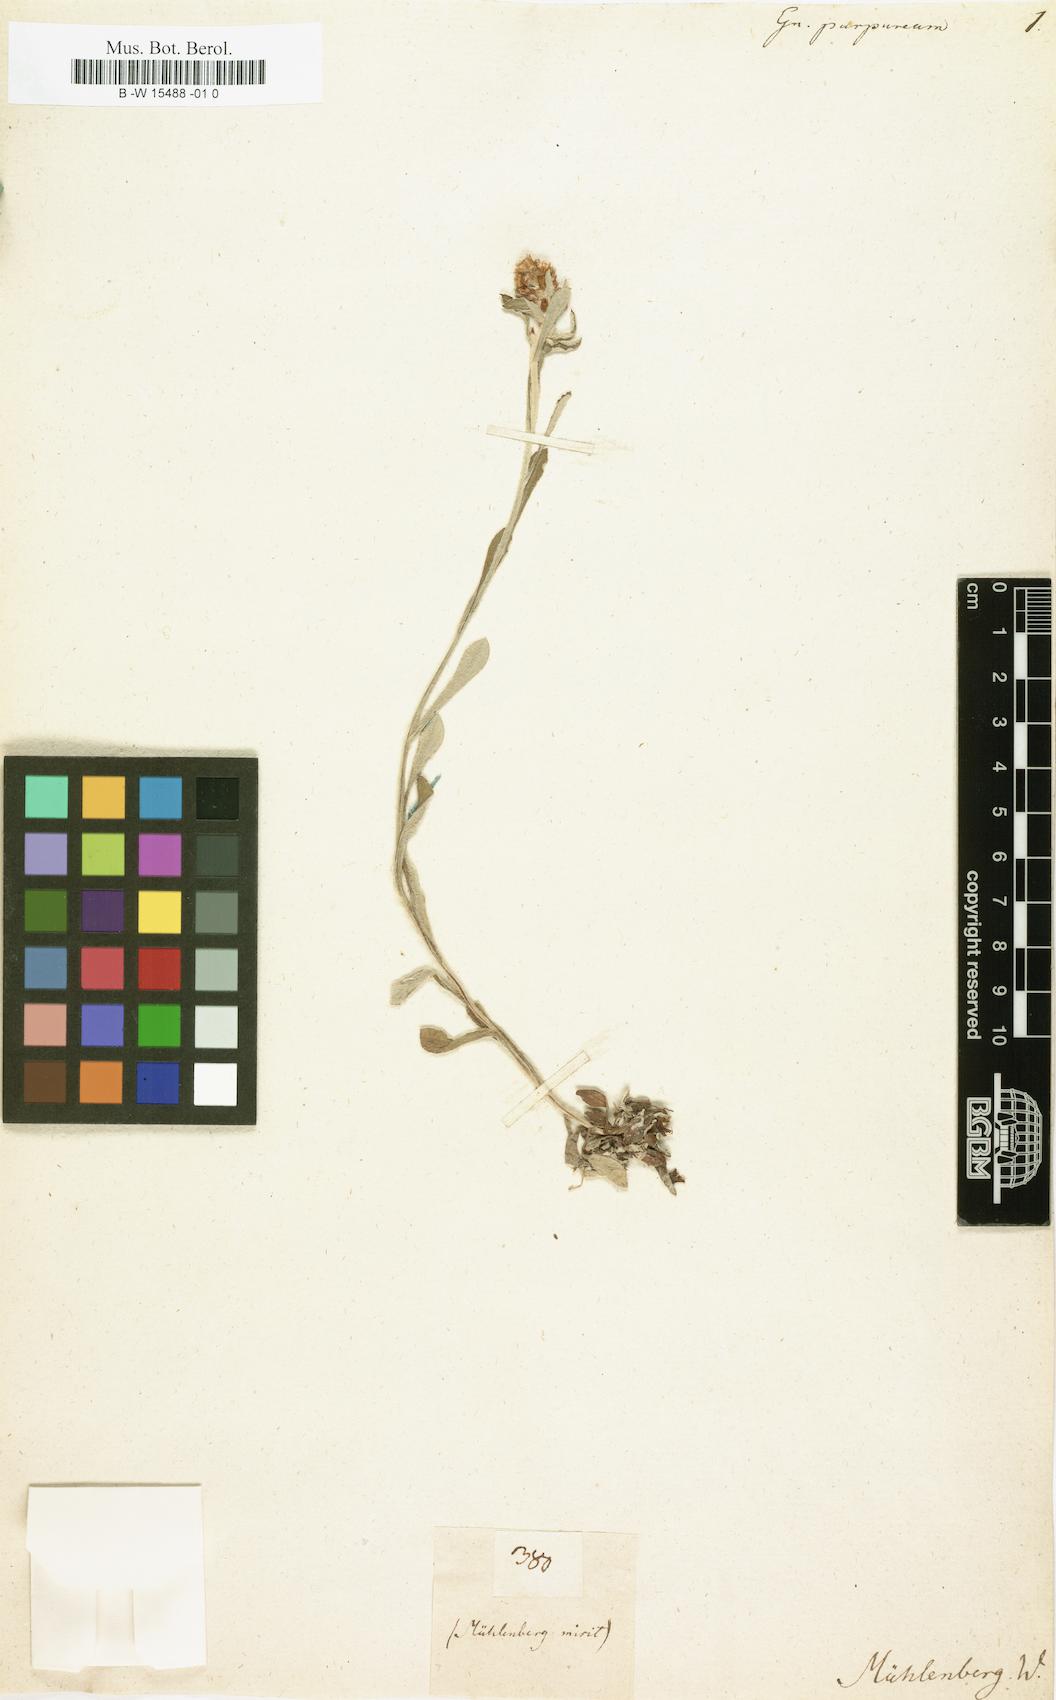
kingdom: Plantae
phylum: Tracheophyta
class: Magnoliopsida
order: Asterales
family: Asteraceae
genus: Gamochaeta
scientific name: Gamochaeta purpurea
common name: Purple cudweed
